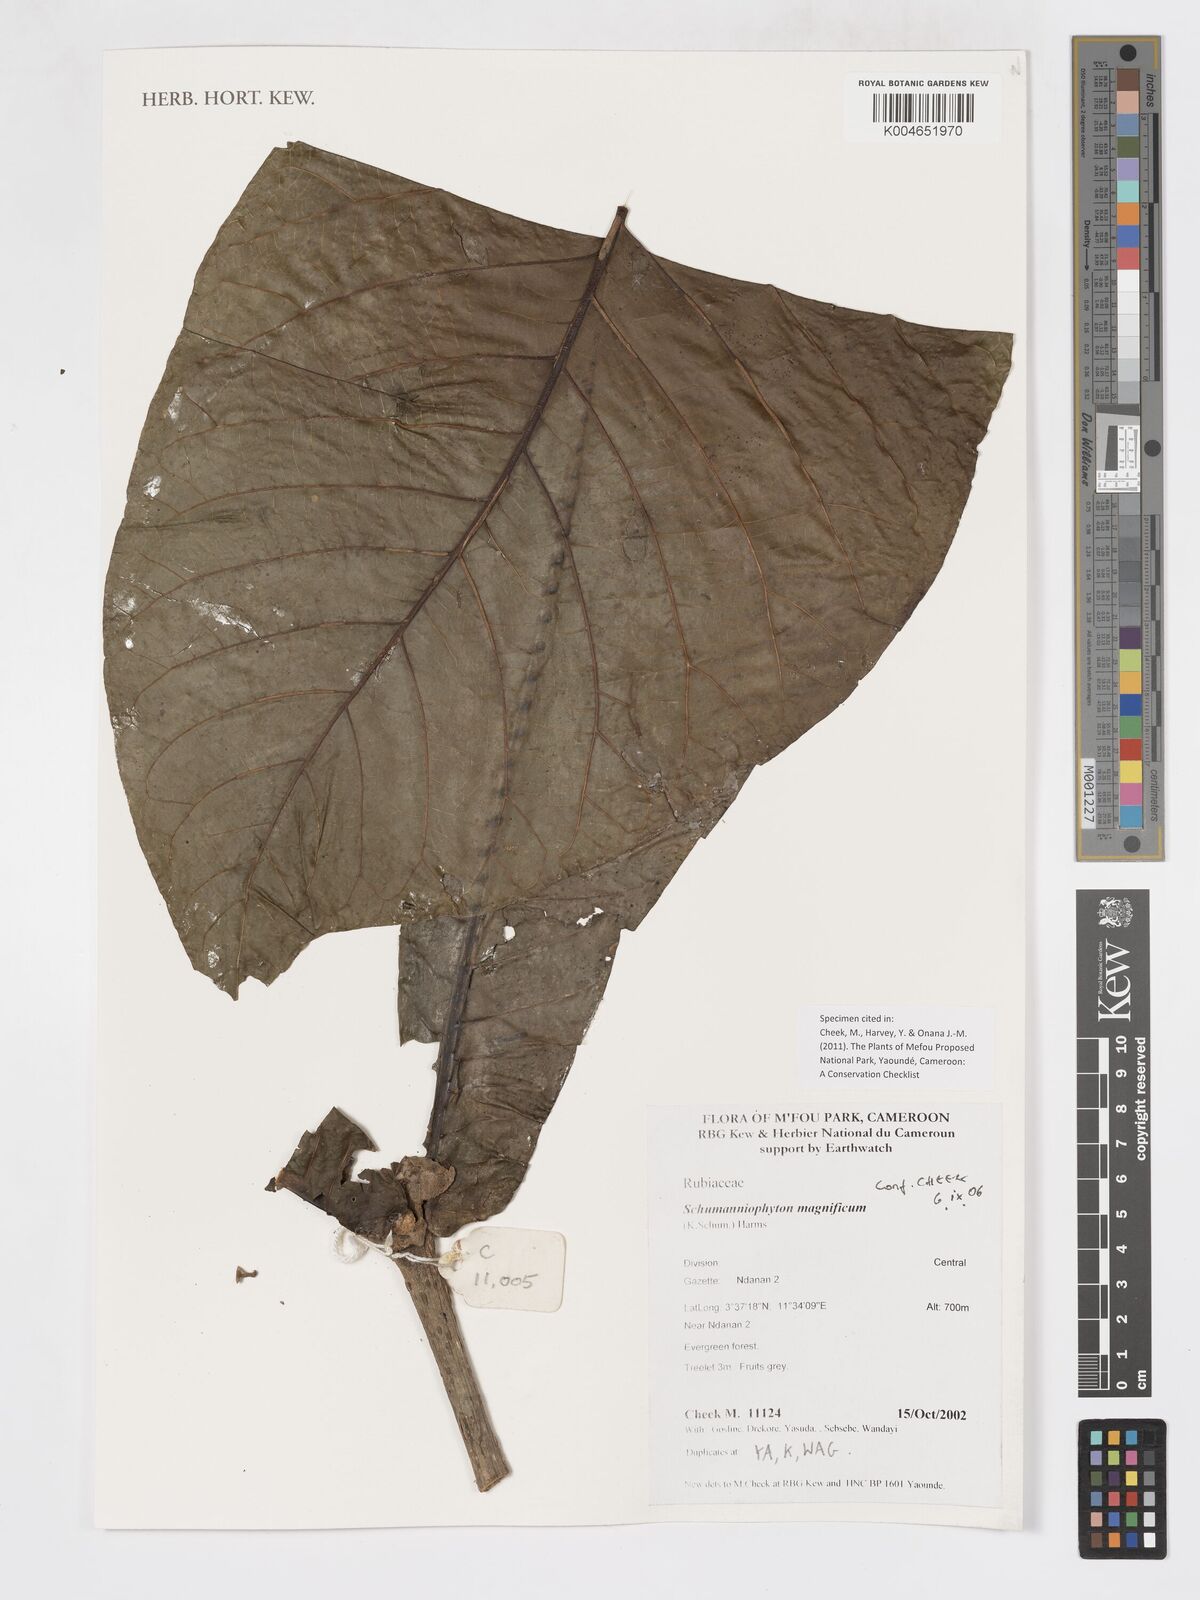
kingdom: Plantae
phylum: Tracheophyta
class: Magnoliopsida
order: Gentianales
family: Rubiaceae
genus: Schumanniophyton
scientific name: Schumanniophyton magnificum
